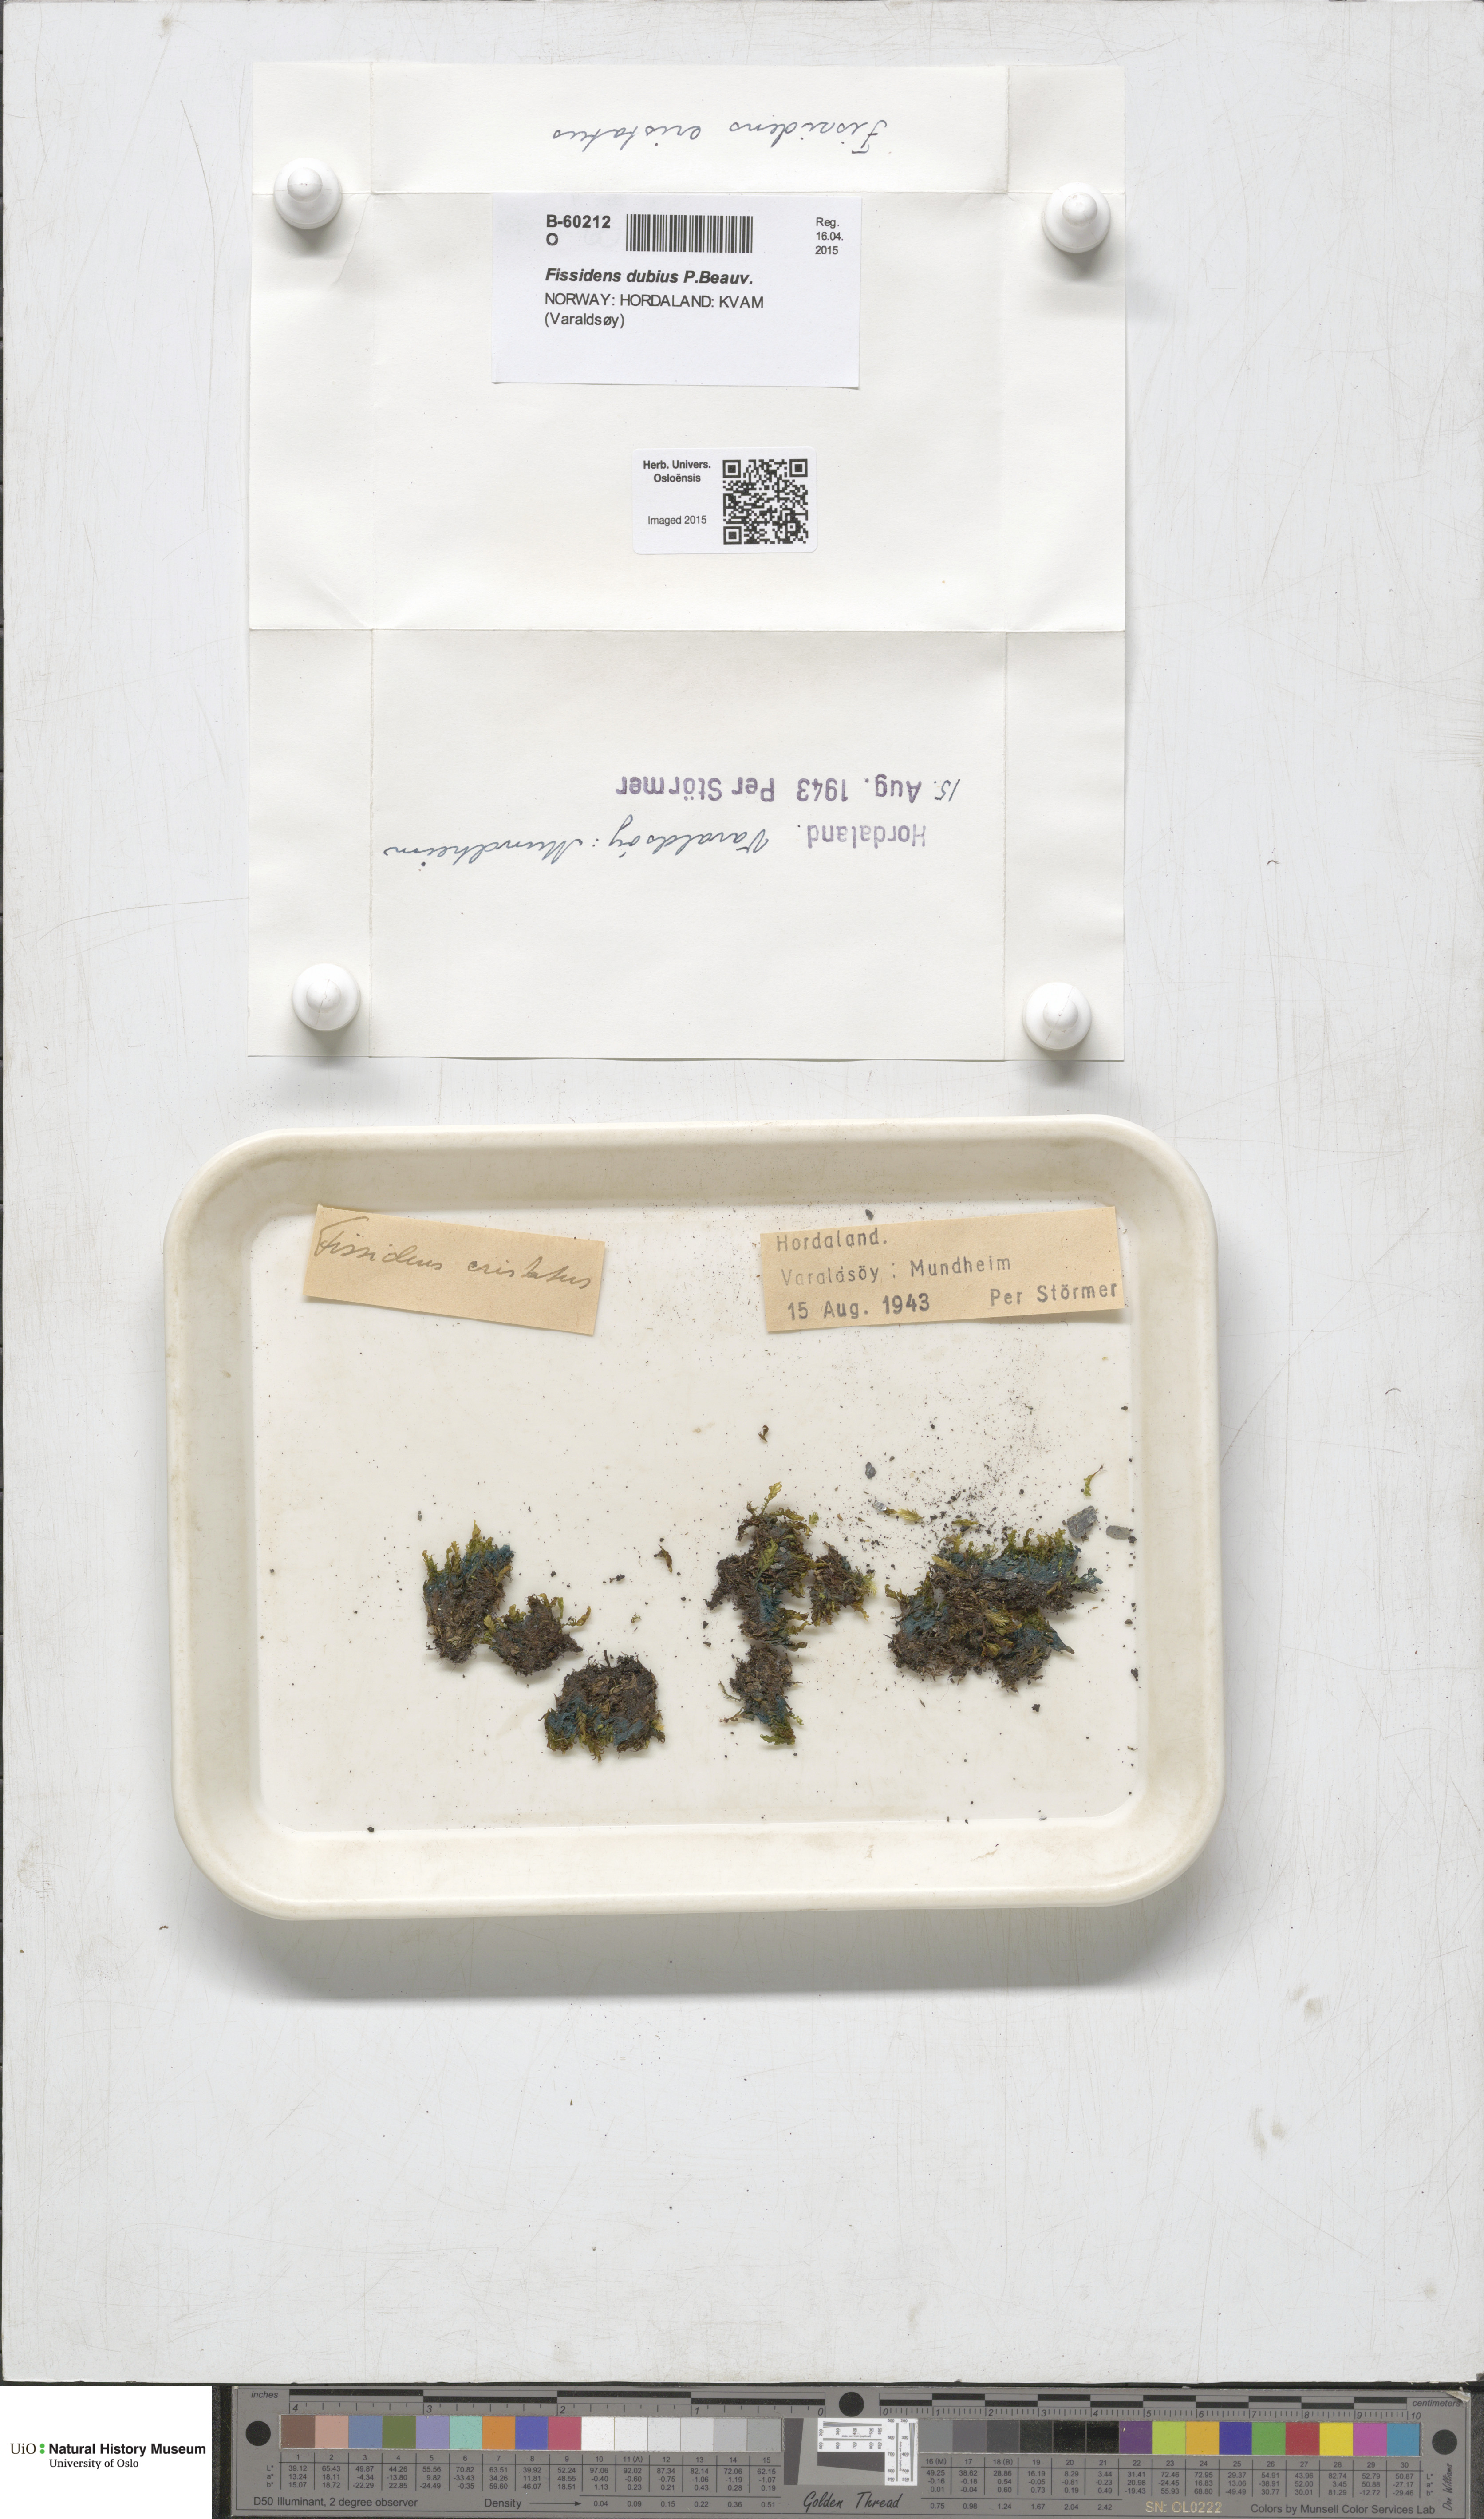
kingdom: Plantae
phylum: Bryophyta
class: Bryopsida
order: Dicranales
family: Fissidentaceae
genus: Fissidens
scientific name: Fissidens dubius
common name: Rock pocket moss
